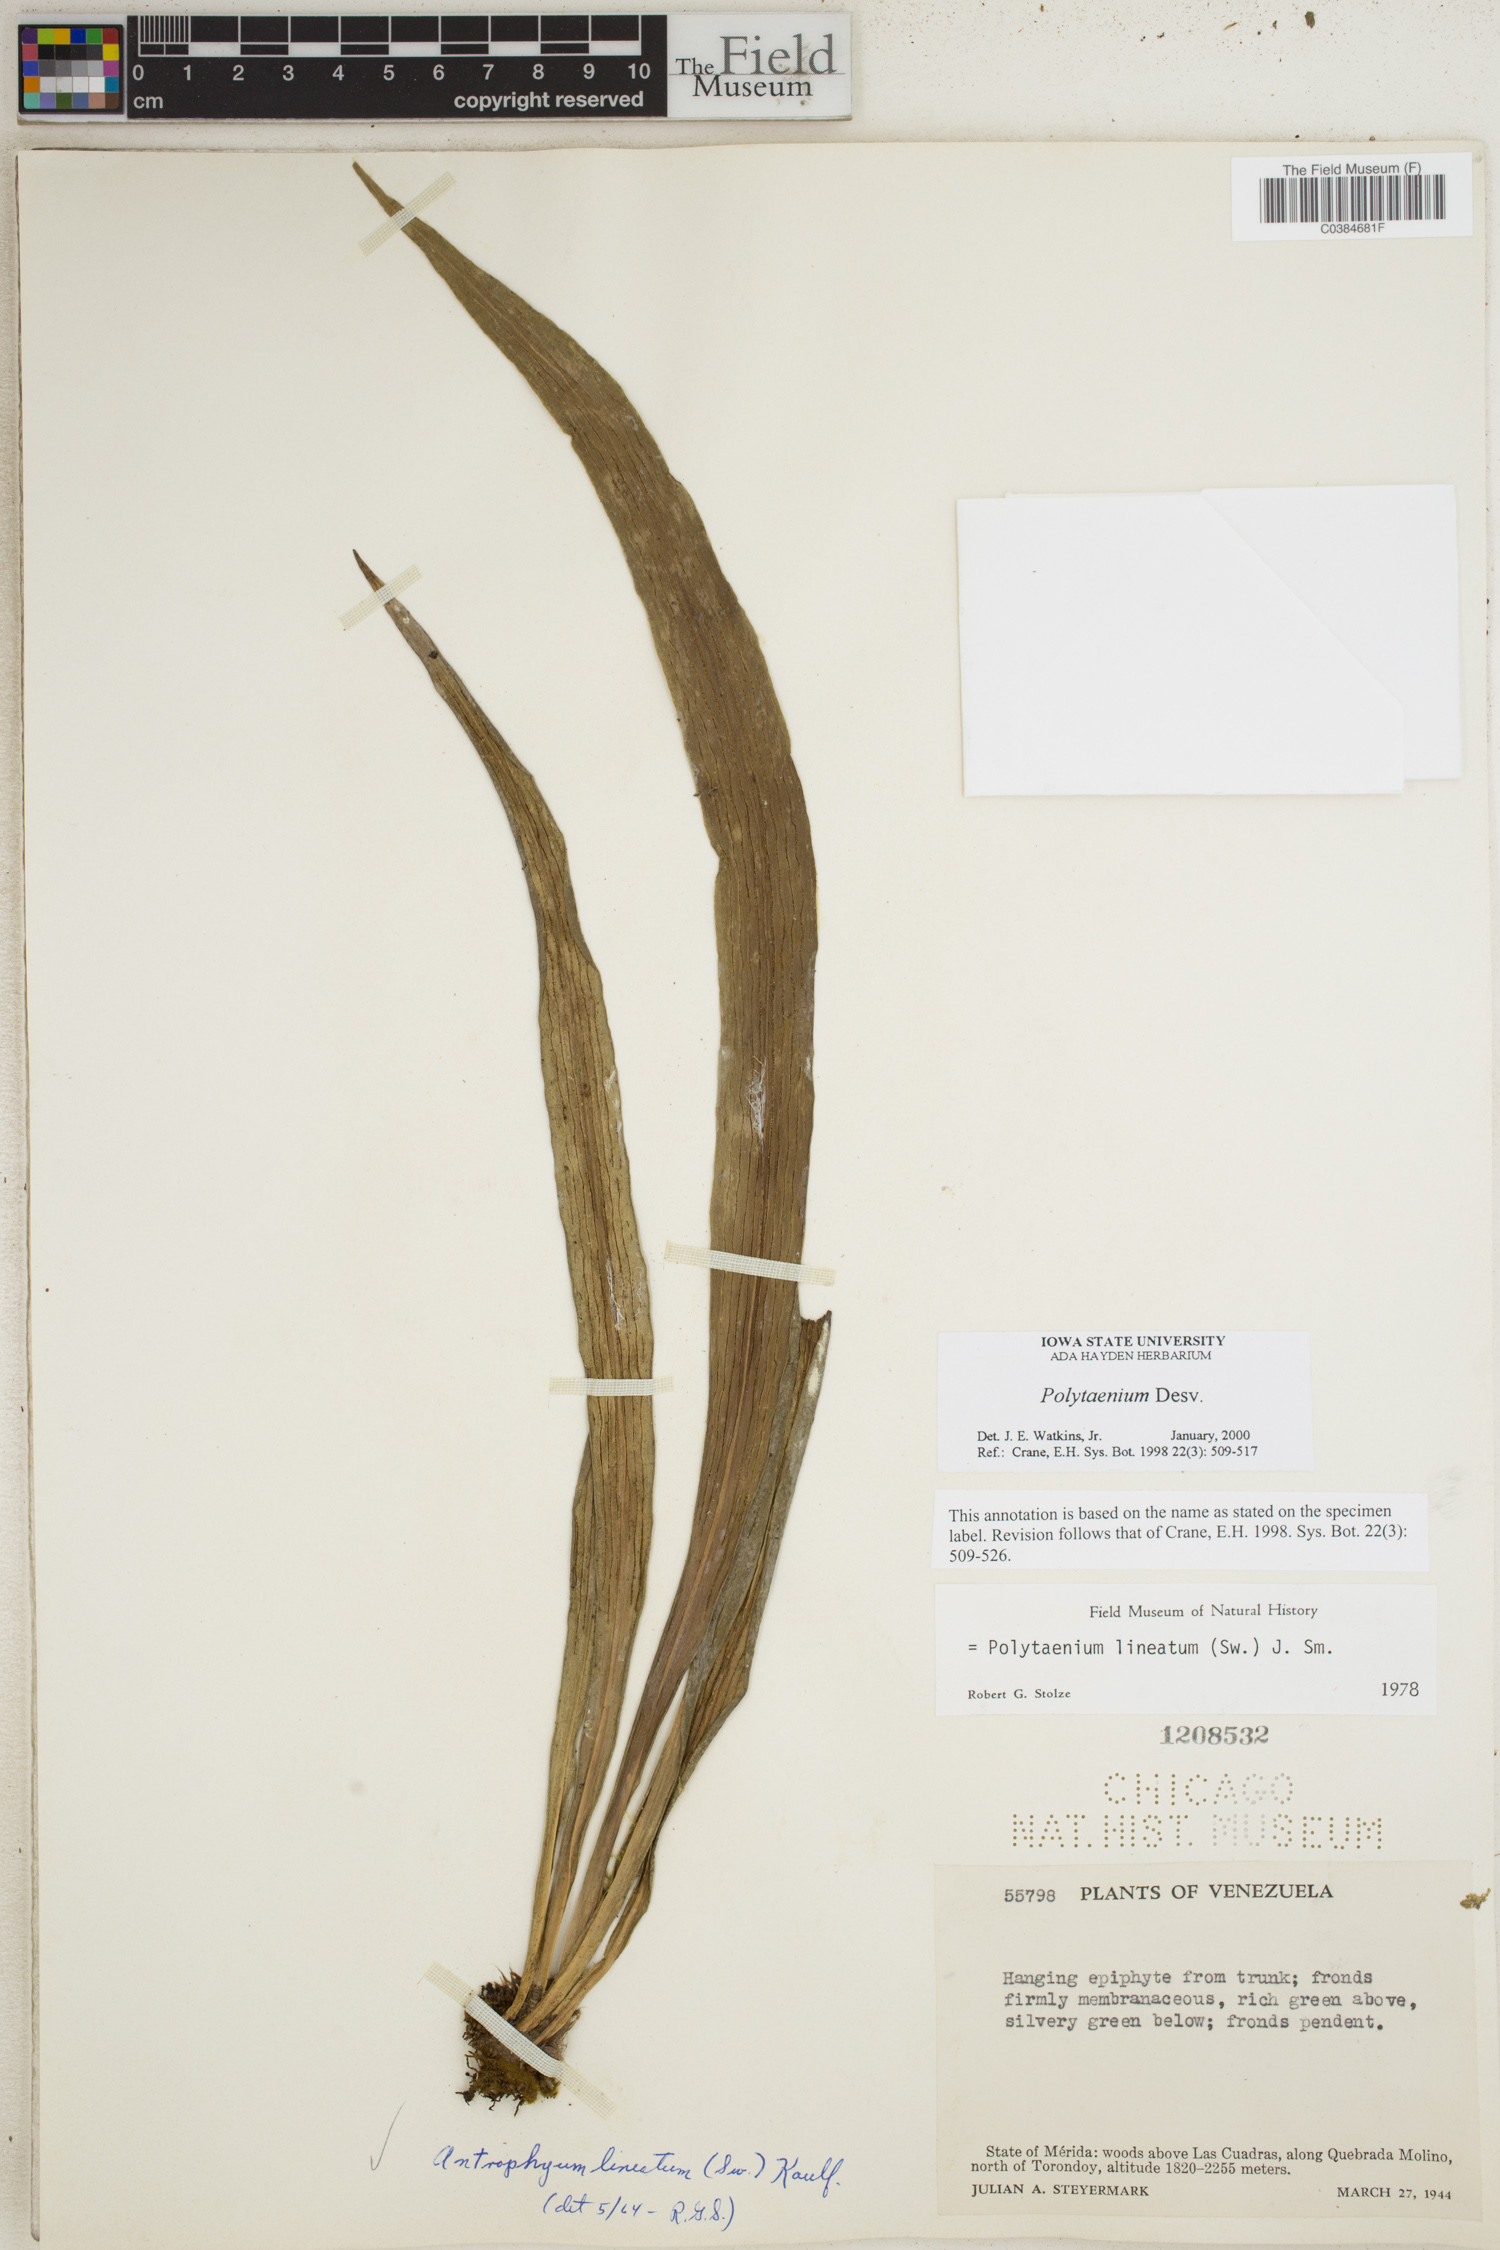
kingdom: Plantae
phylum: Tracheophyta
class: Polypodiopsida
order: Polypodiales
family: Pteridaceae
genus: Polytaenium
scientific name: Polytaenium
